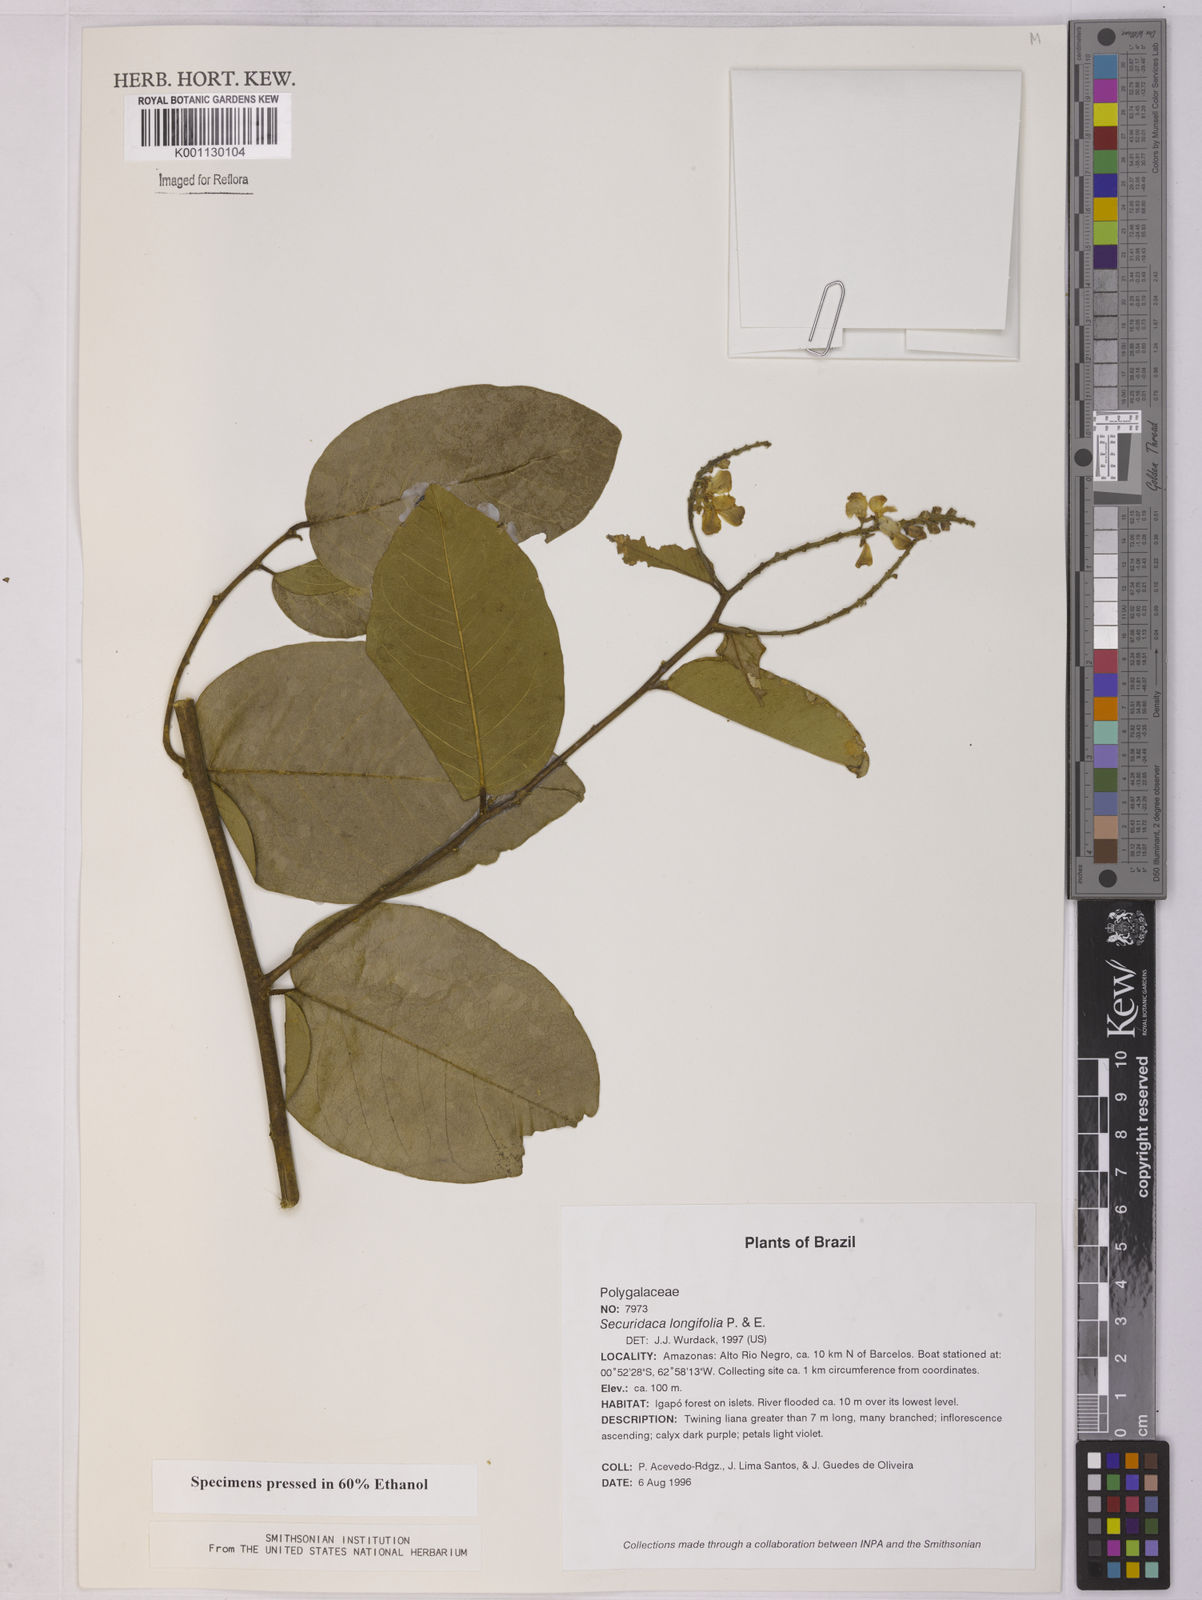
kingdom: Plantae
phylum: Tracheophyta
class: Magnoliopsida
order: Fabales
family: Polygalaceae
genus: Securidaca
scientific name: Securidaca longifolia
